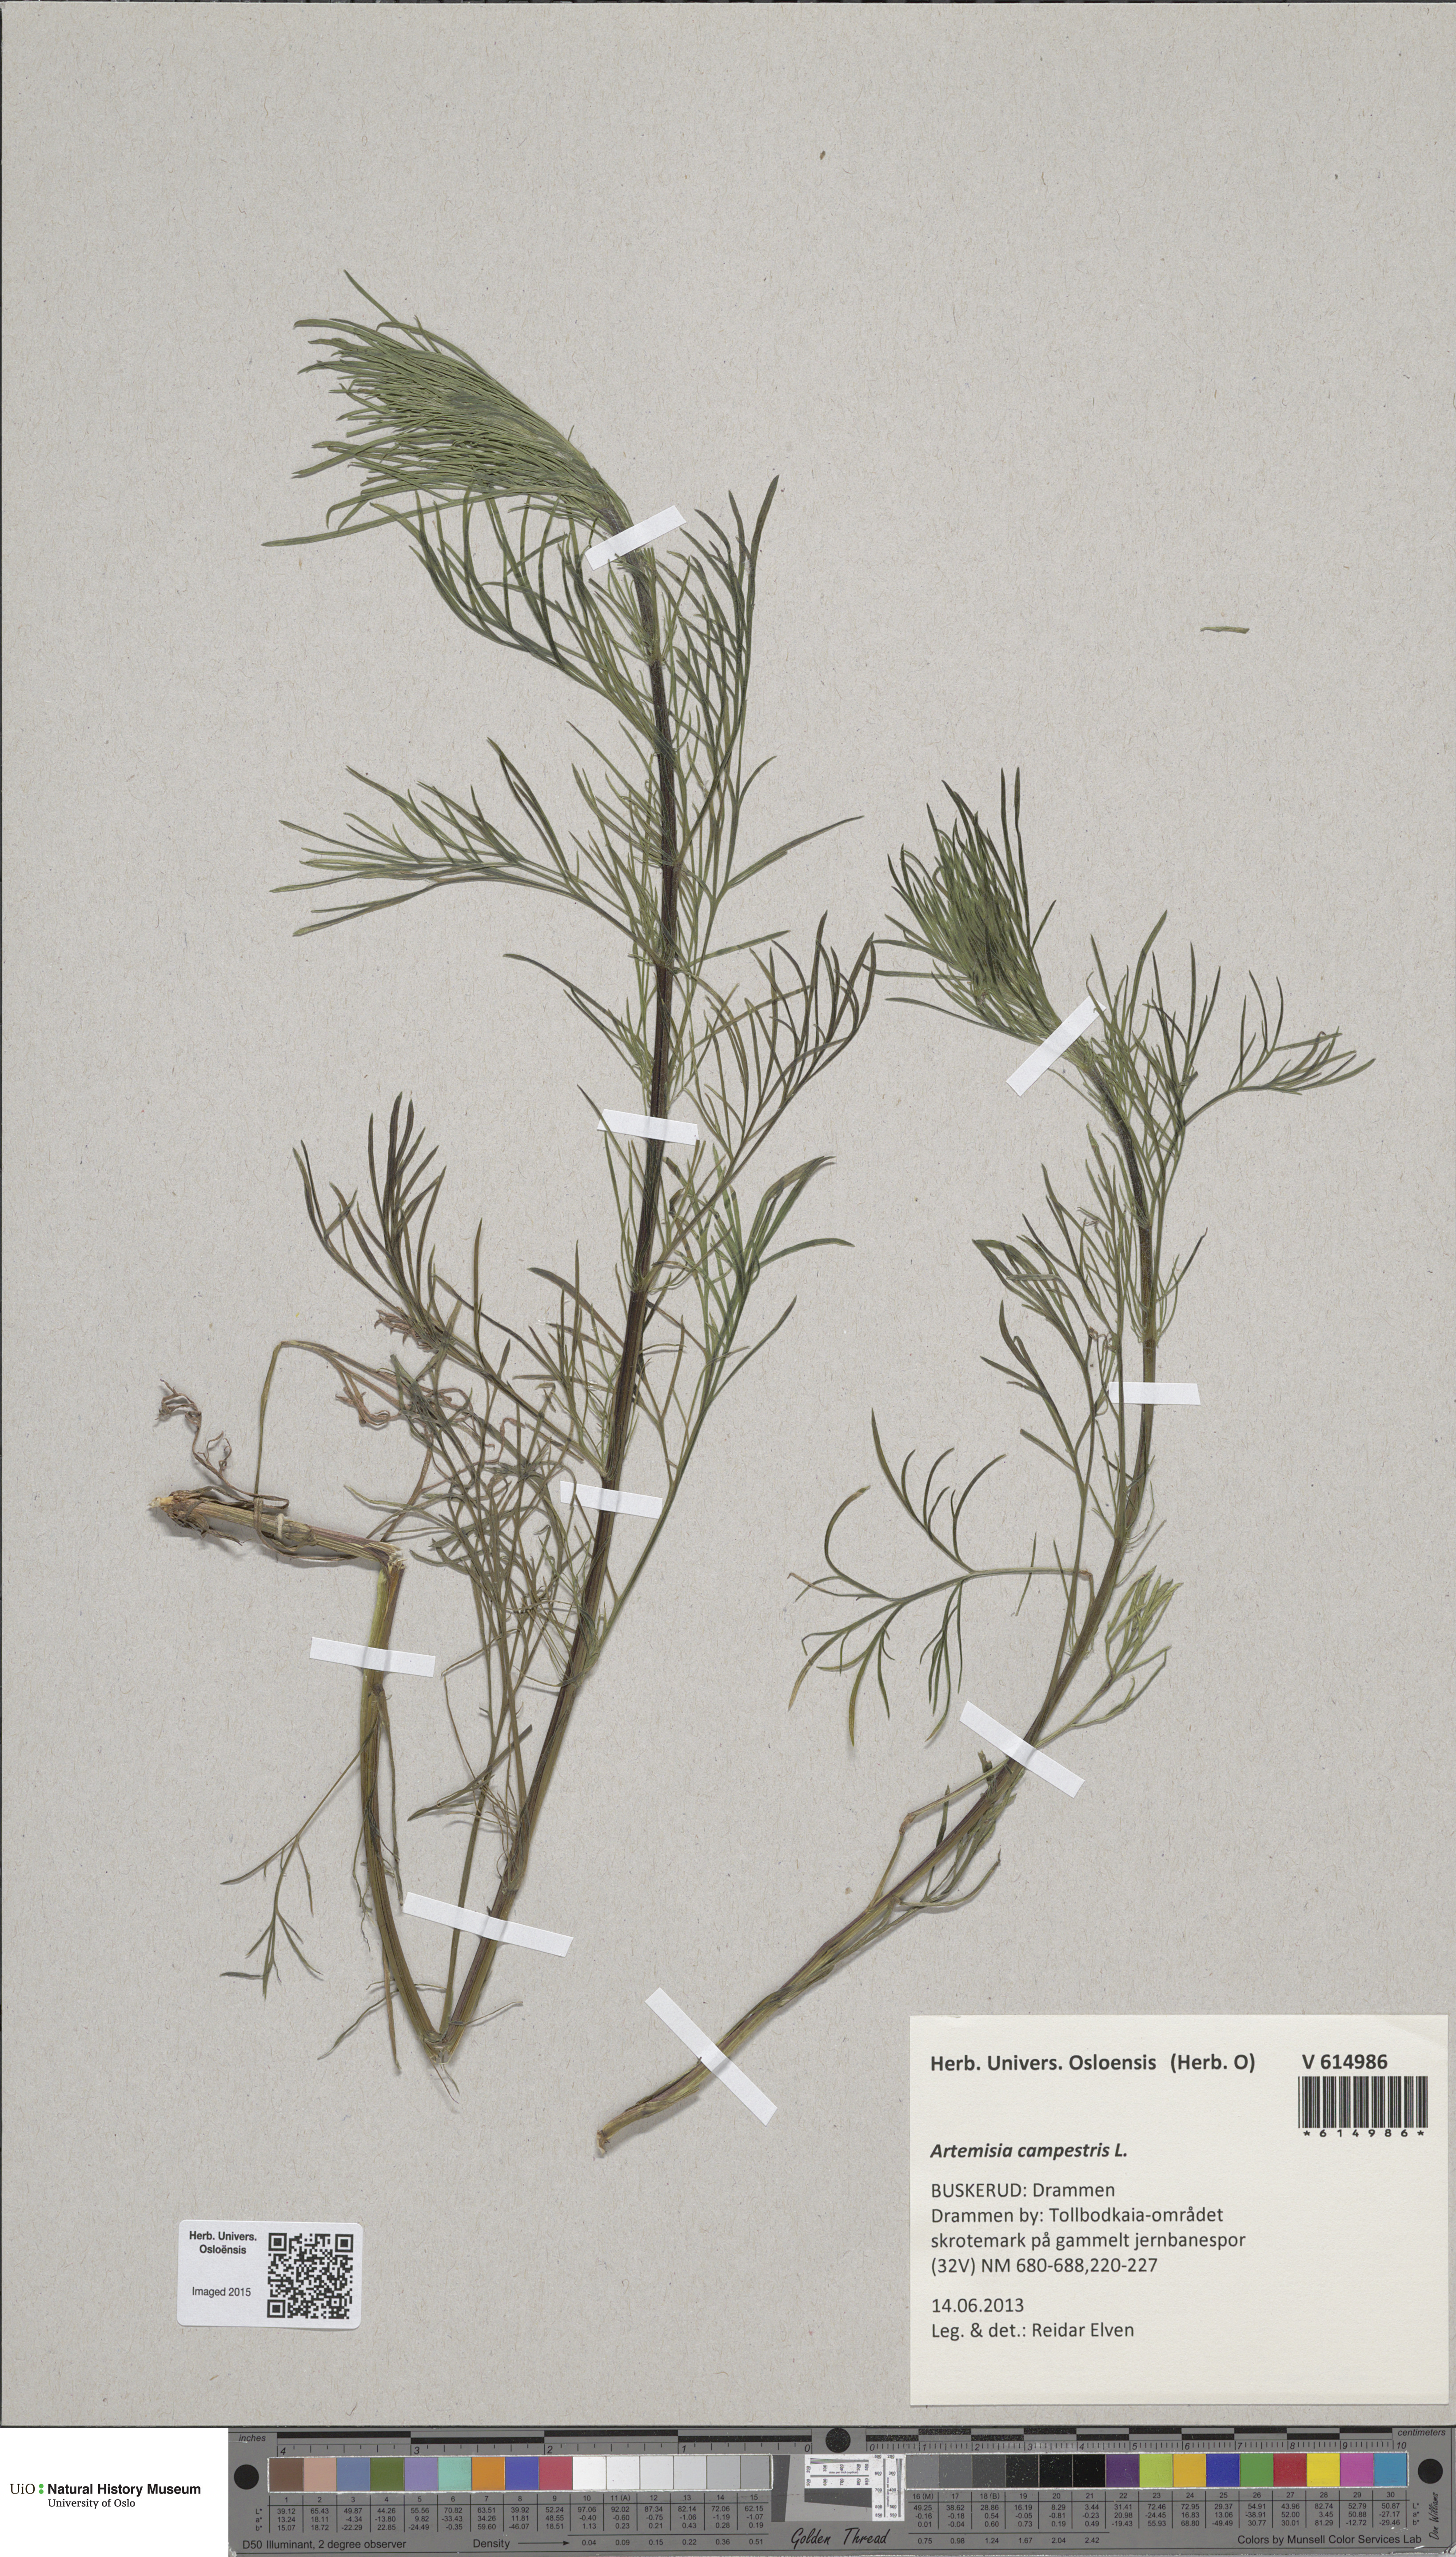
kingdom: Plantae
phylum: Tracheophyta
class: Magnoliopsida
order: Asterales
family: Asteraceae
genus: Artemisia
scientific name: Artemisia campestris
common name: Field wormwood
